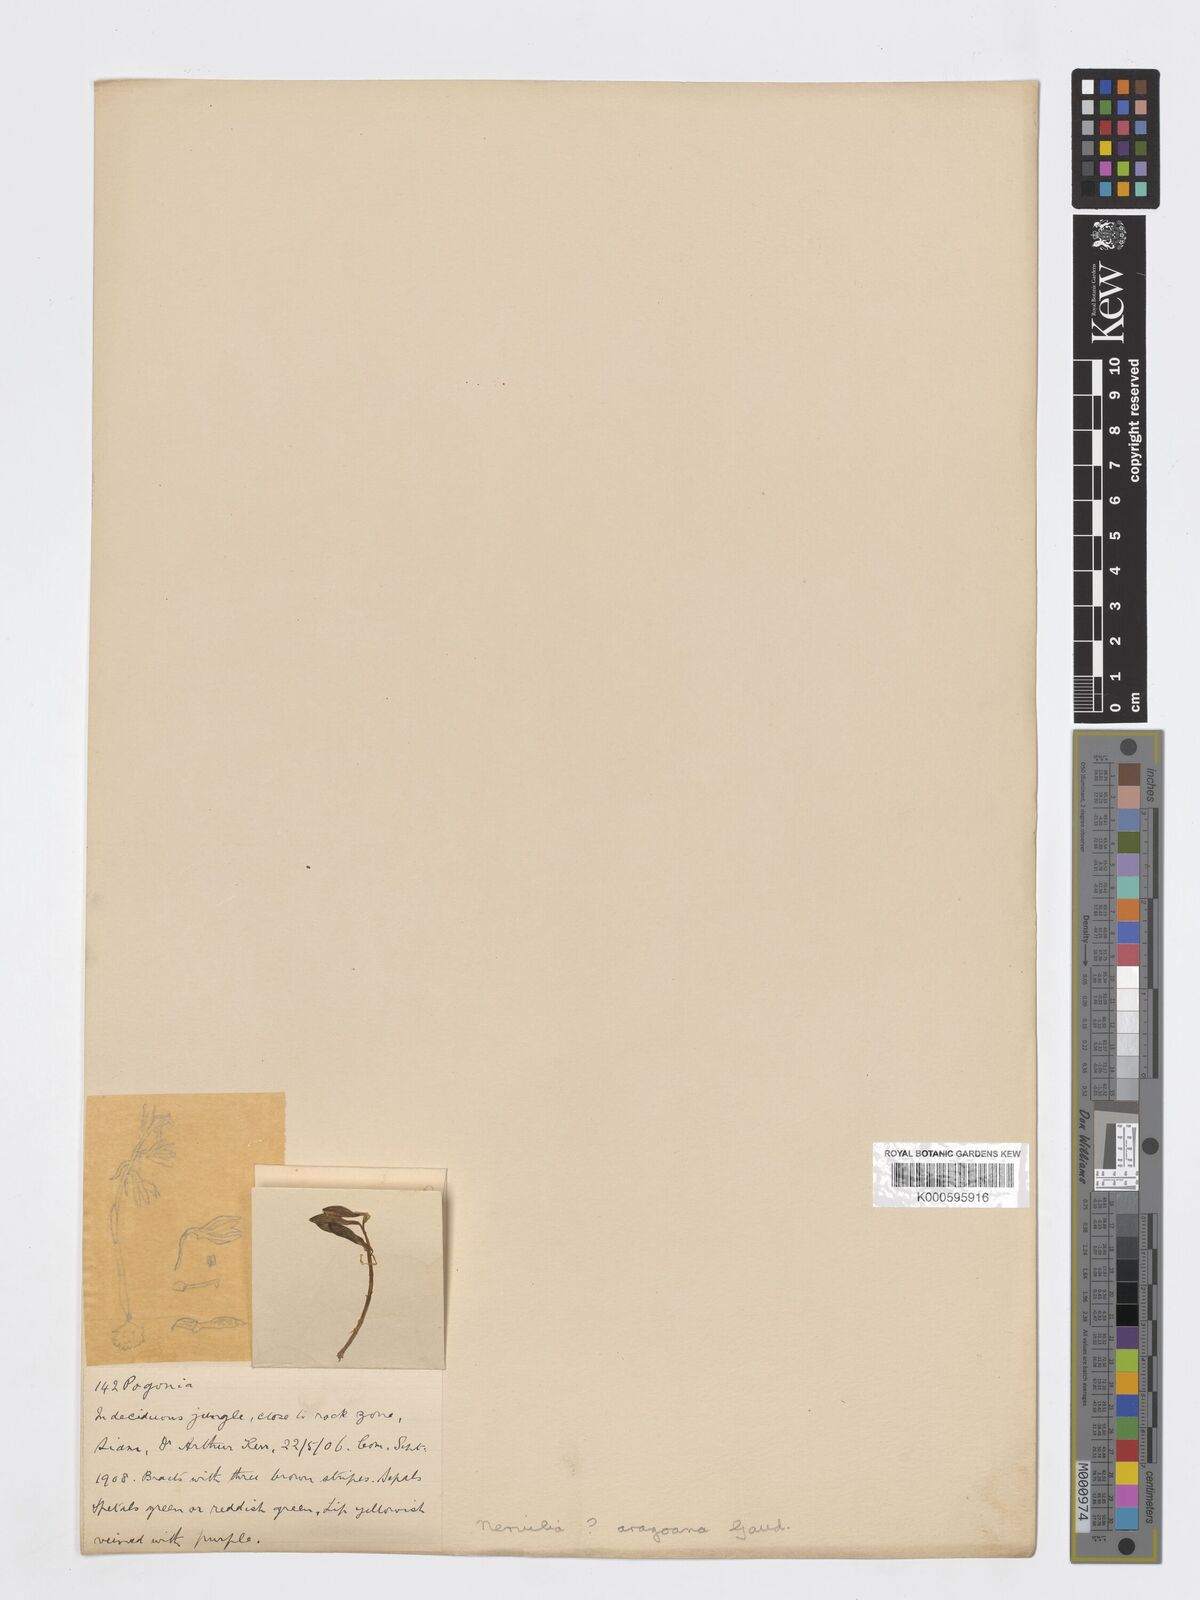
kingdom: Plantae
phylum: Tracheophyta
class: Liliopsida
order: Asparagales
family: Orchidaceae
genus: Nervilia
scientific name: Nervilia concolor
